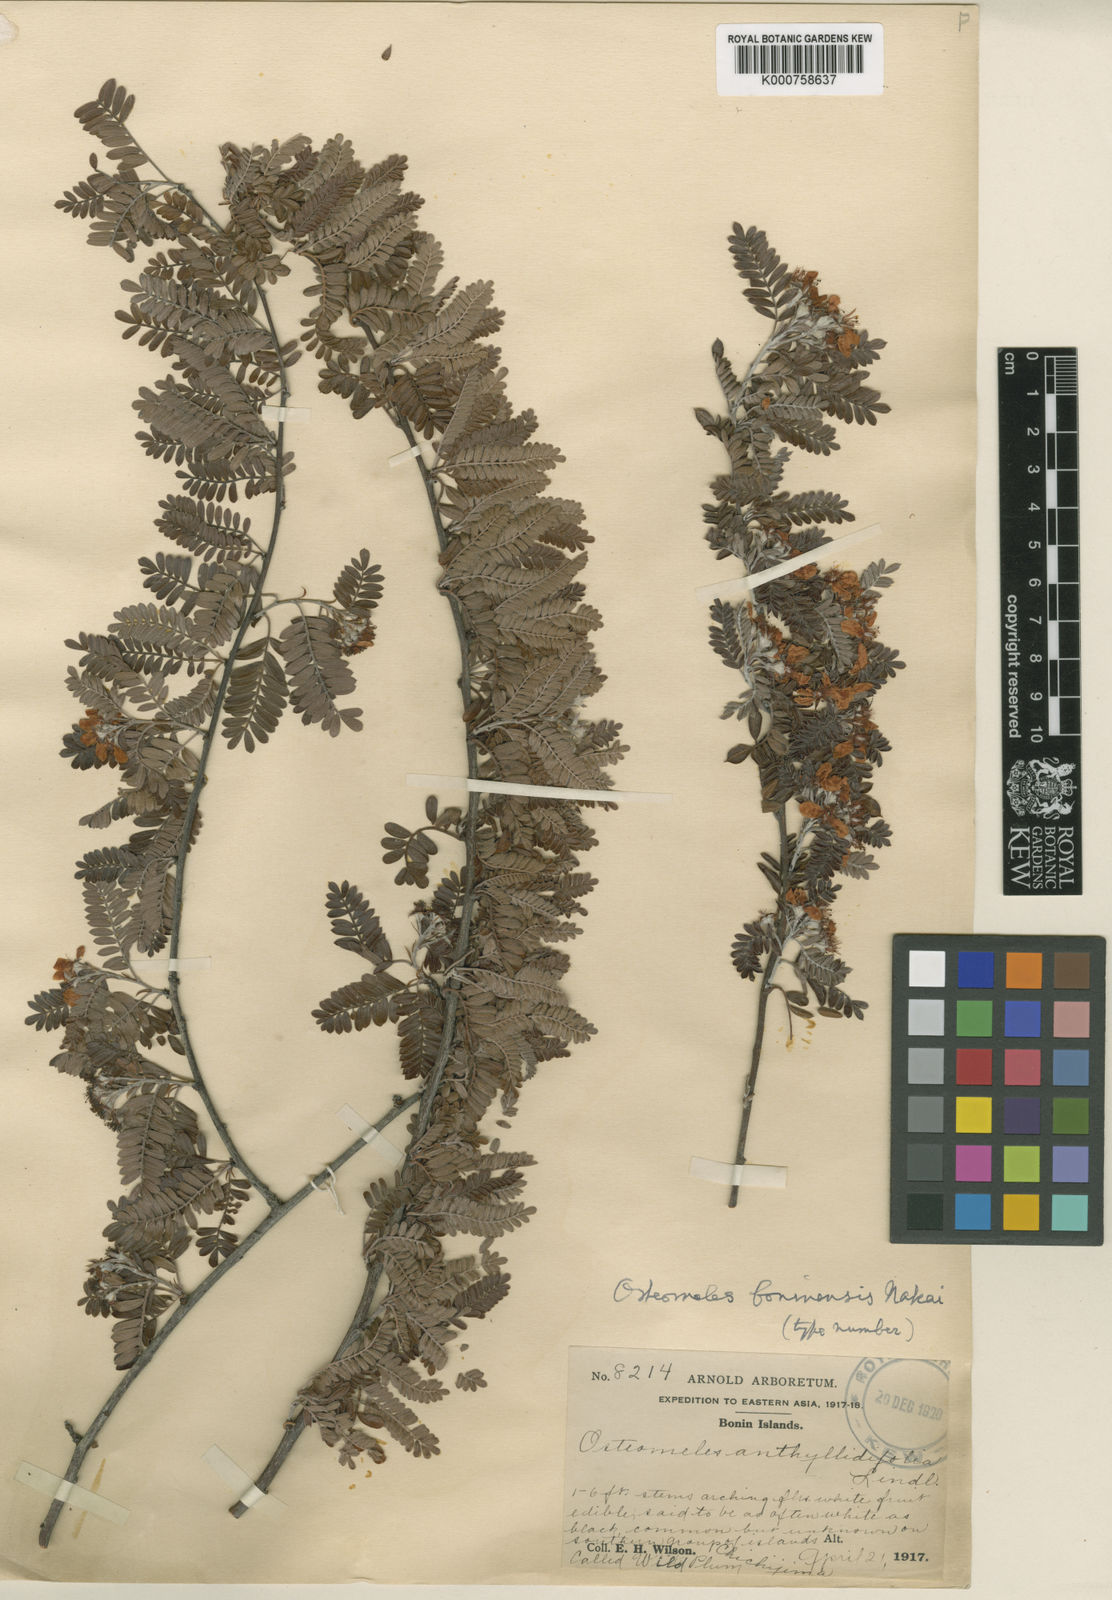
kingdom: Plantae
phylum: Tracheophyta
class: Magnoliopsida
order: Rosales
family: Rosaceae
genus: Osteomeles
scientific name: Osteomeles schweriniae
